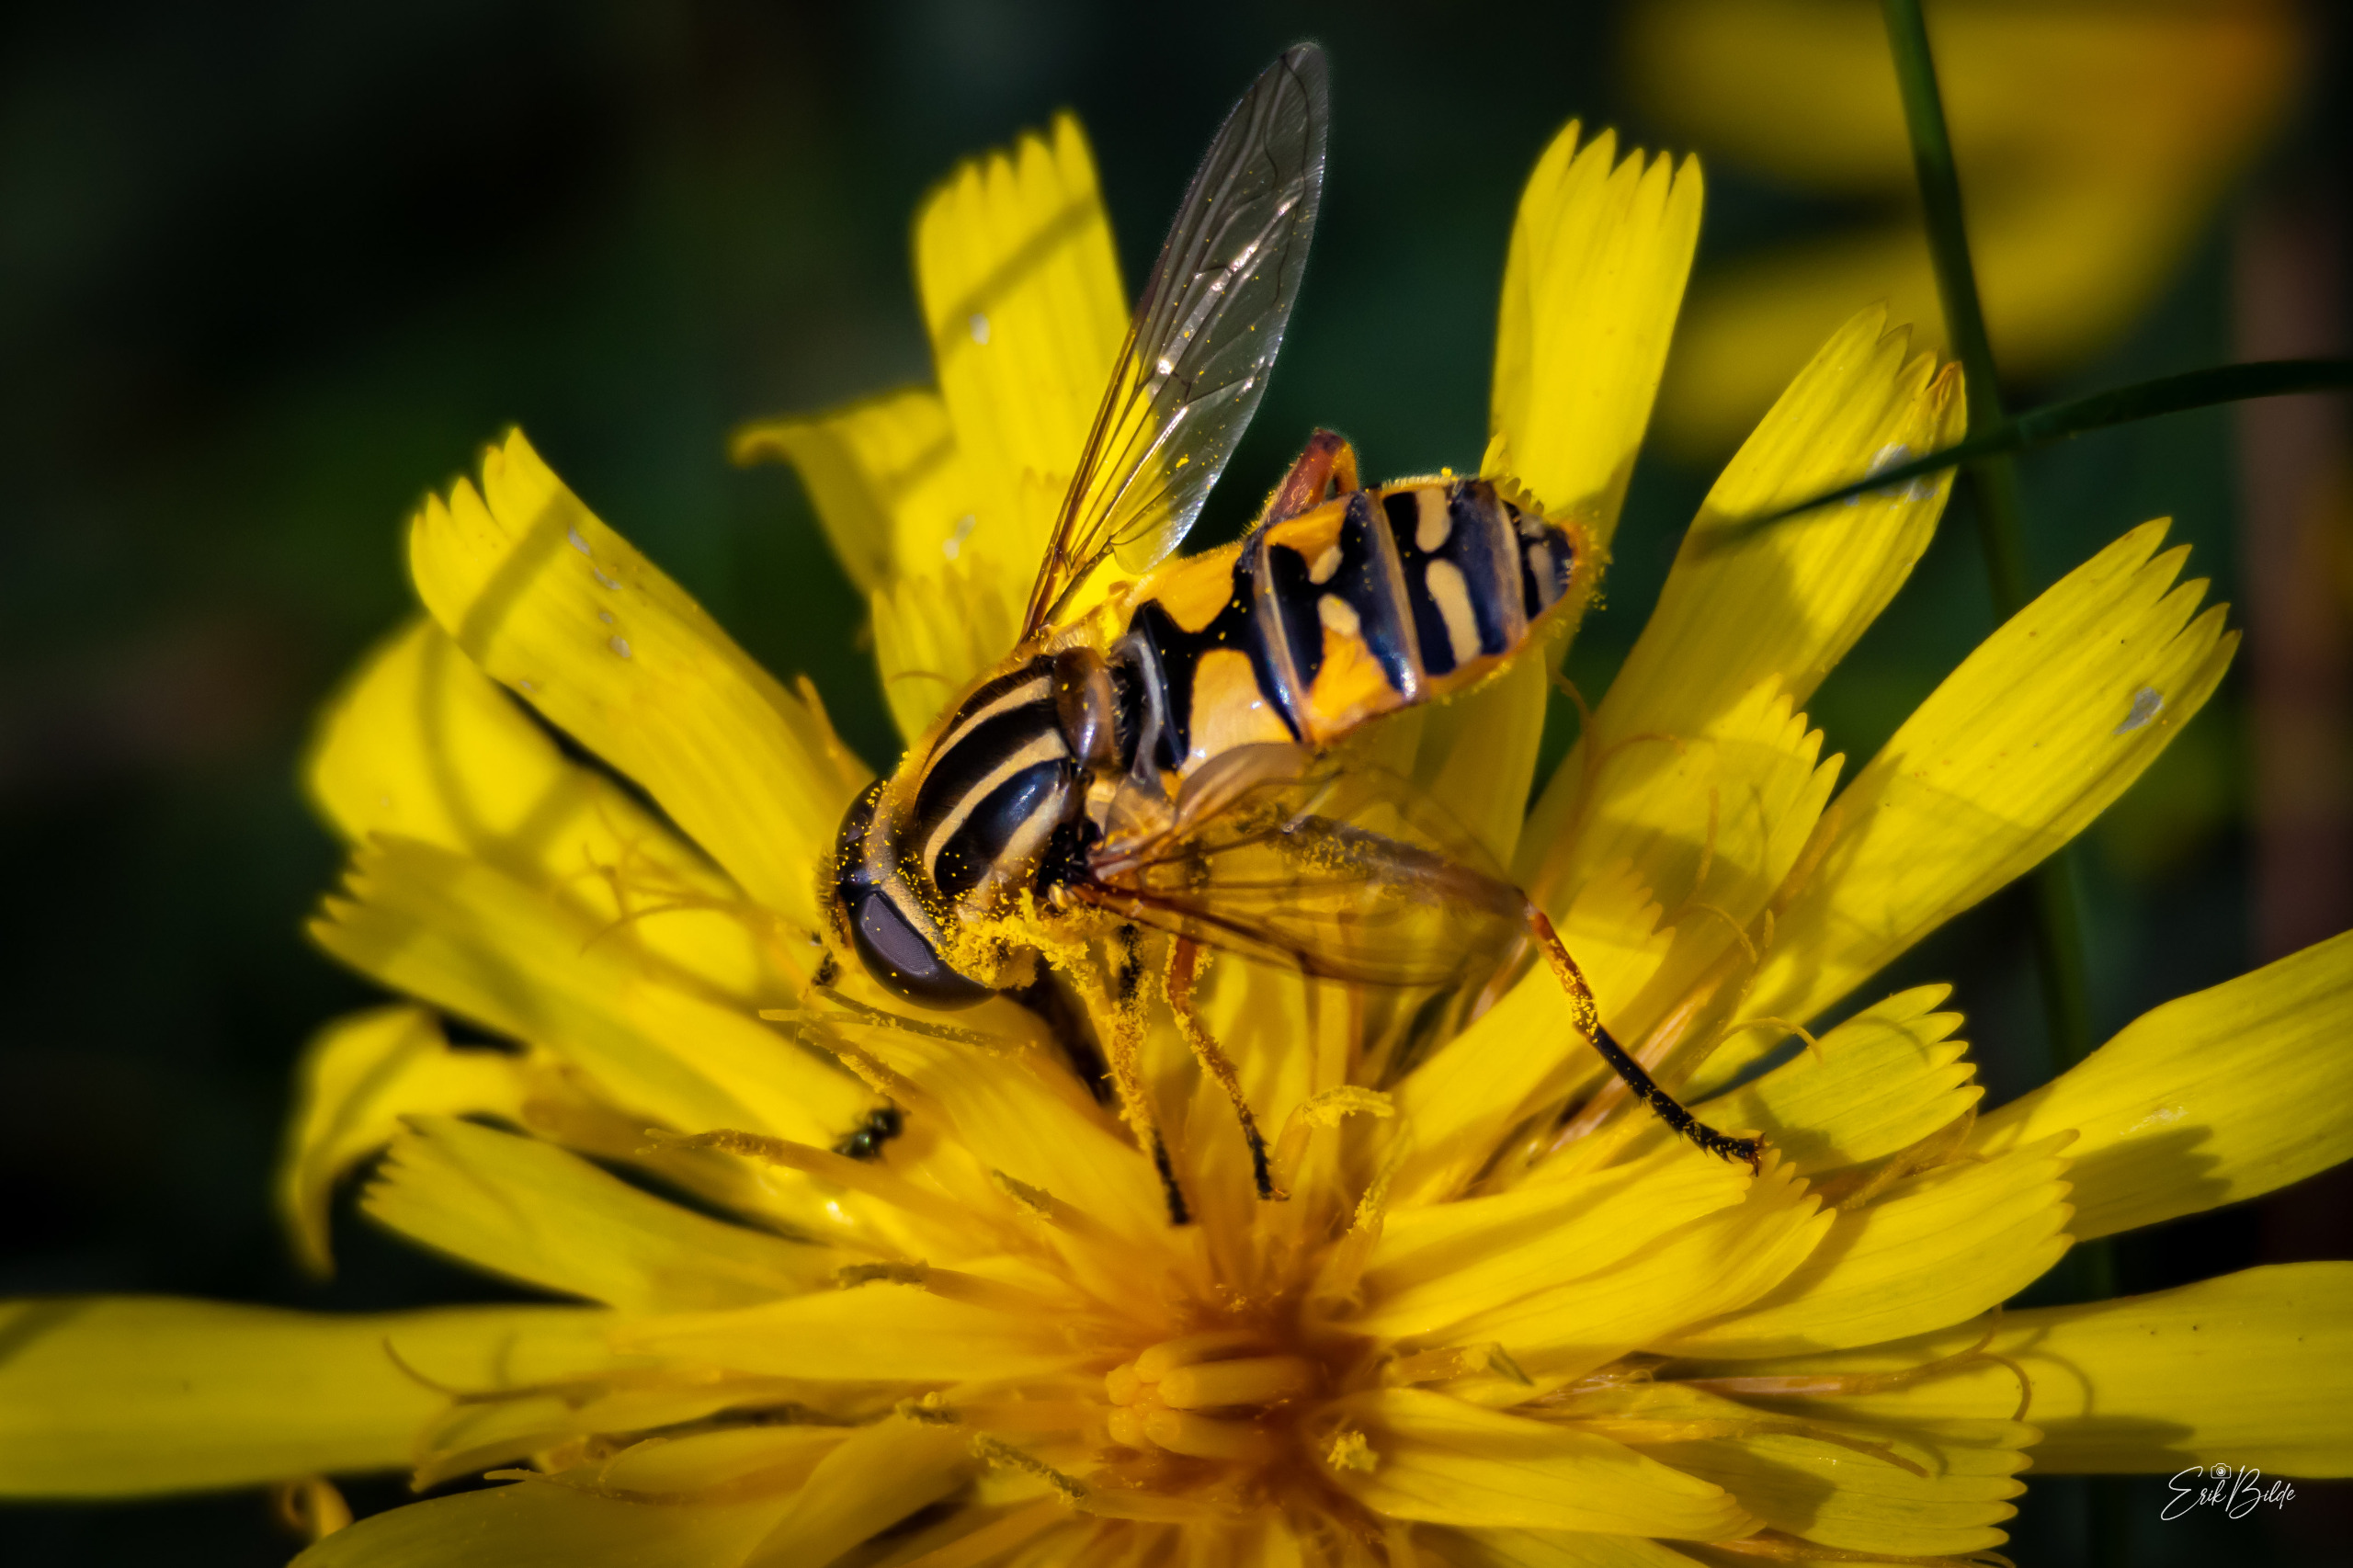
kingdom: Animalia
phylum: Arthropoda
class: Insecta
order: Diptera
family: Syrphidae
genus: Helophilus
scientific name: Helophilus pendulus
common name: Almindelig sumpsvirreflue
